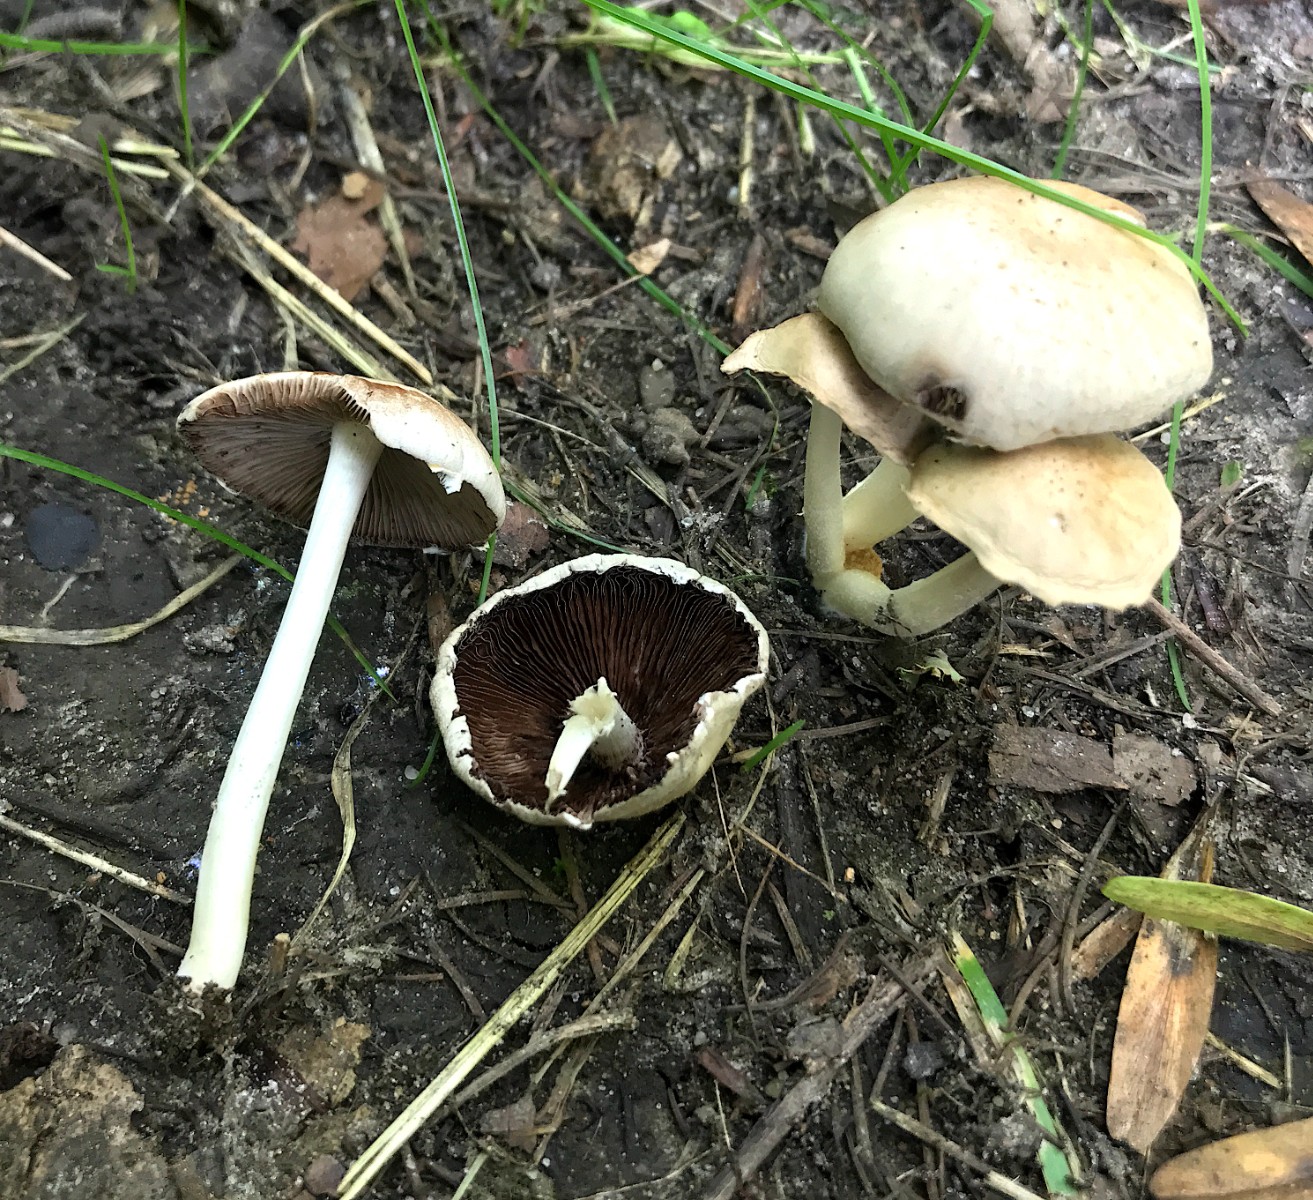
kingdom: Fungi
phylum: Basidiomycota
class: Agaricomycetes
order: Agaricales
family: Psathyrellaceae
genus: Candolleomyces
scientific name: Candolleomyces candolleanus
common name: Candolles mørkhat
